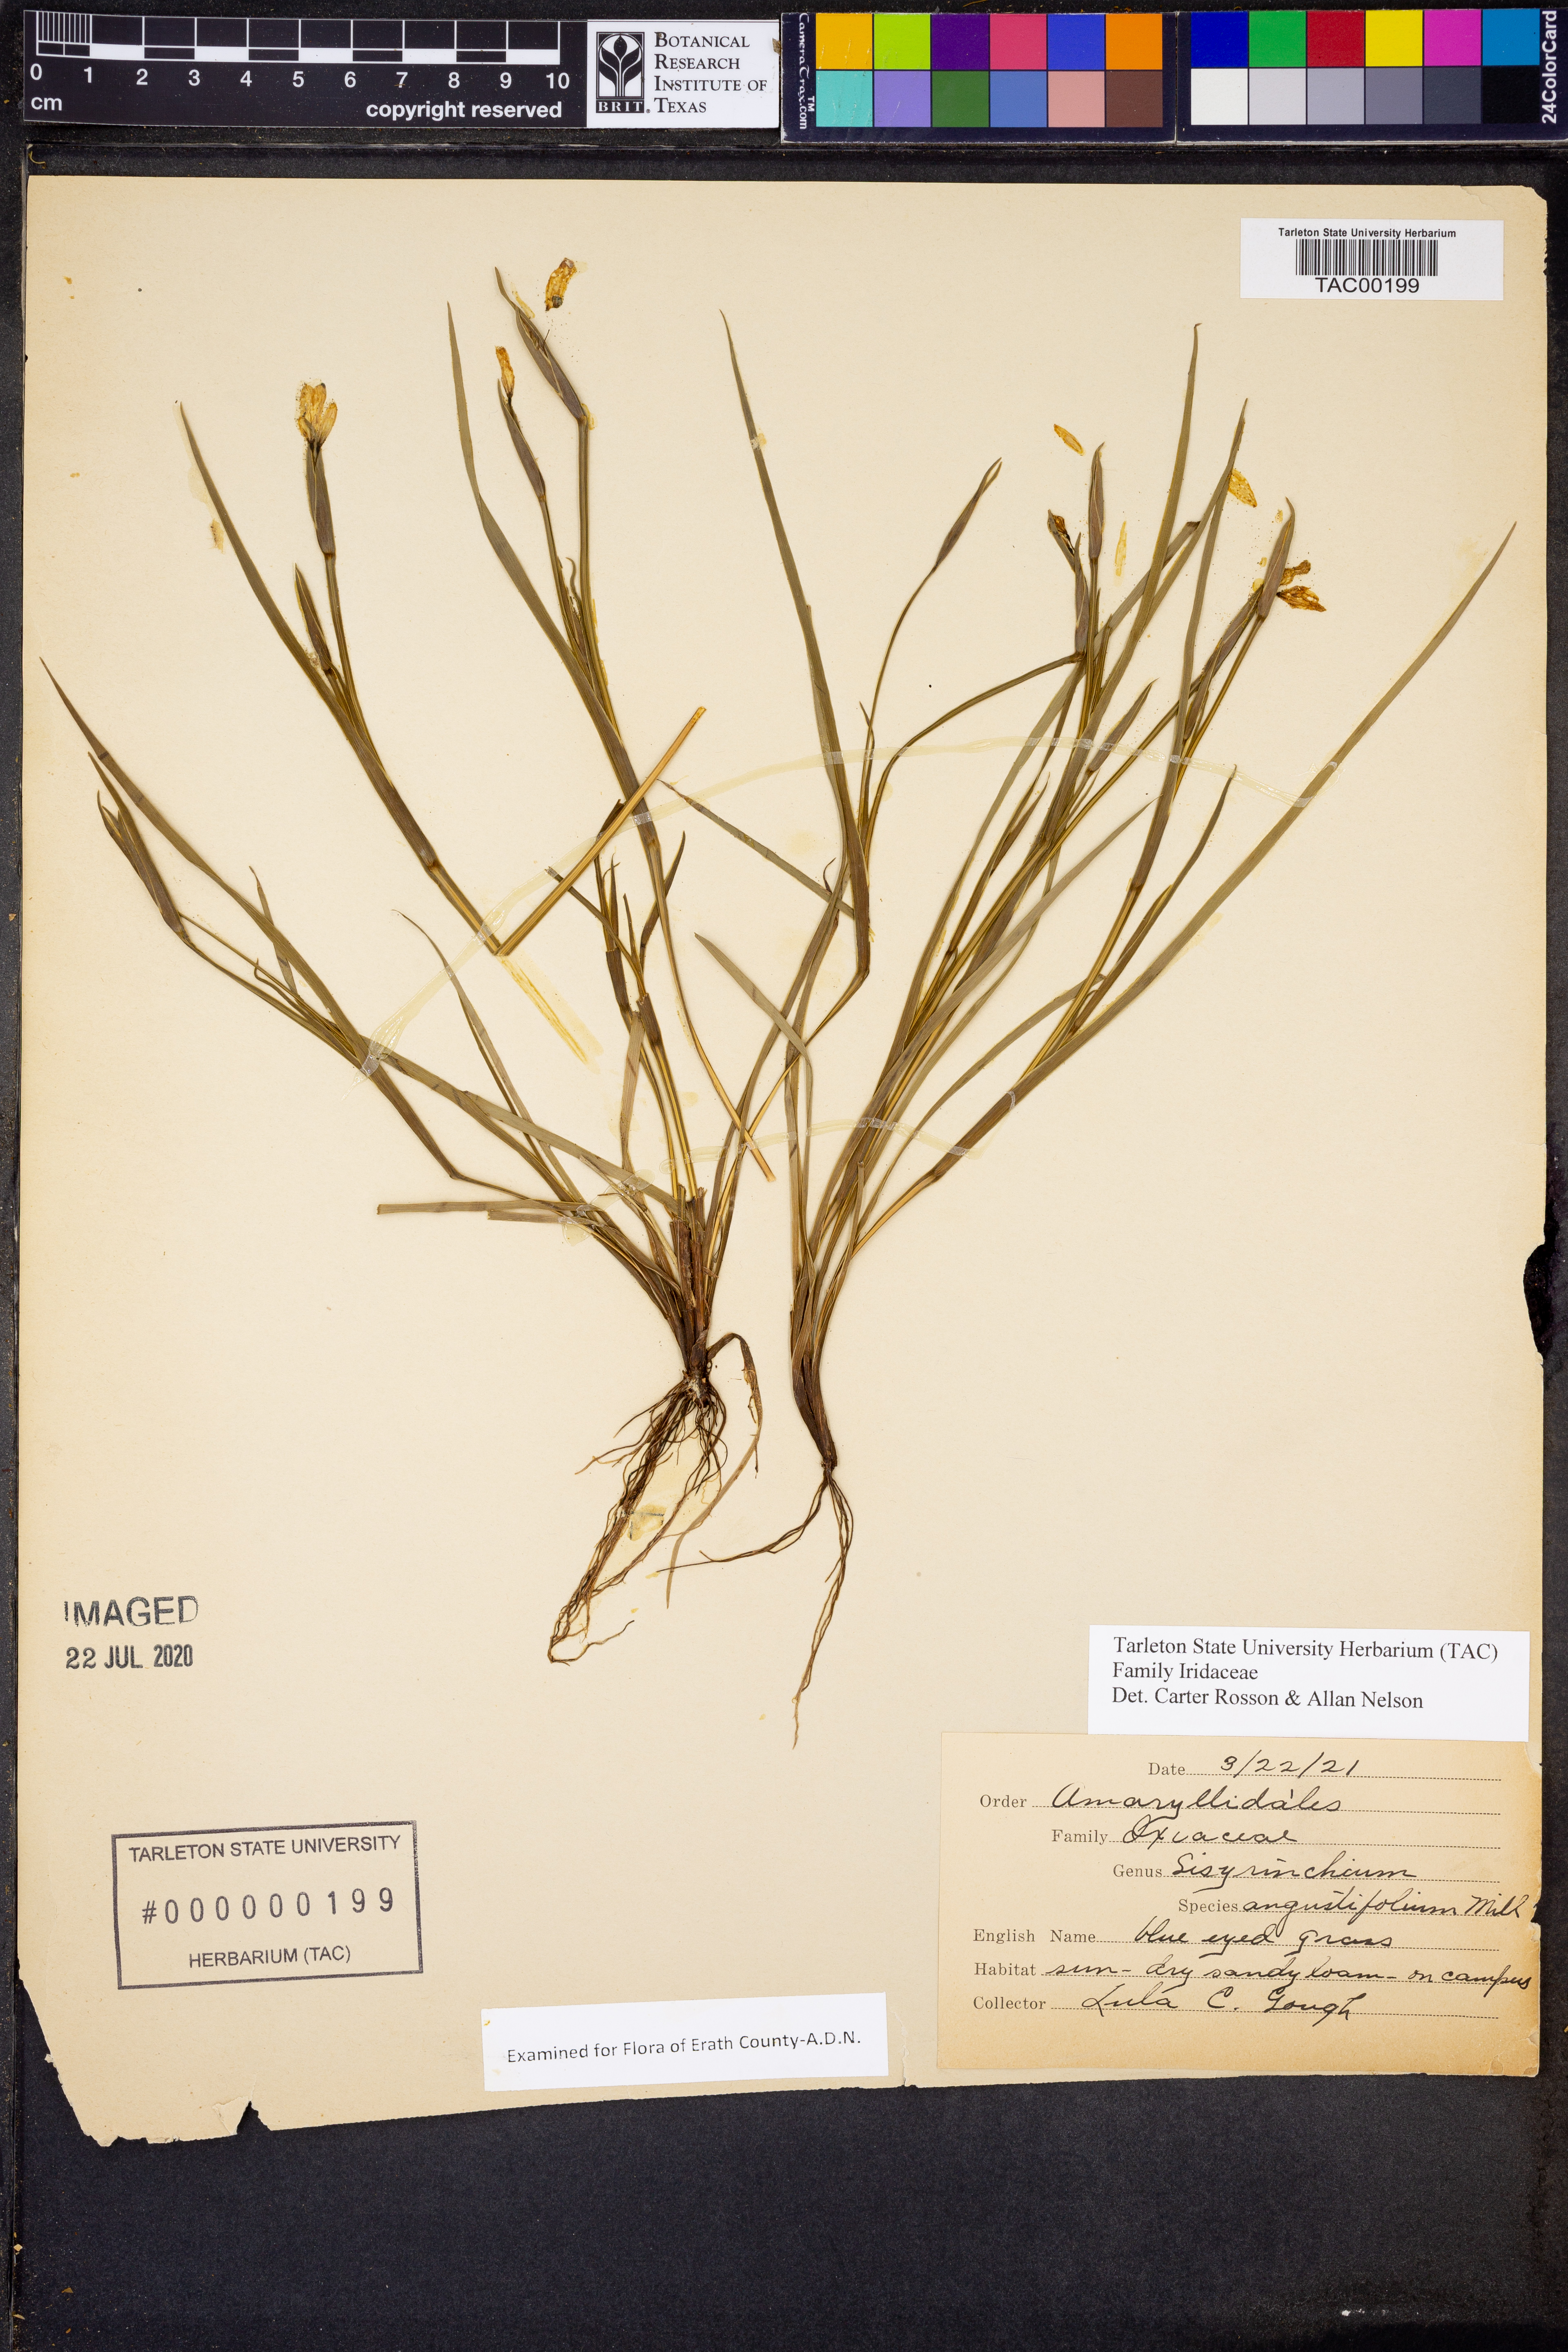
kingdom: Plantae
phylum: Tracheophyta
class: Liliopsida
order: Asparagales
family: Iridaceae
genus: Sisyrinchium
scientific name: Sisyrinchium angustifolium
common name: Narrow-leaf blue-eyed-grass
